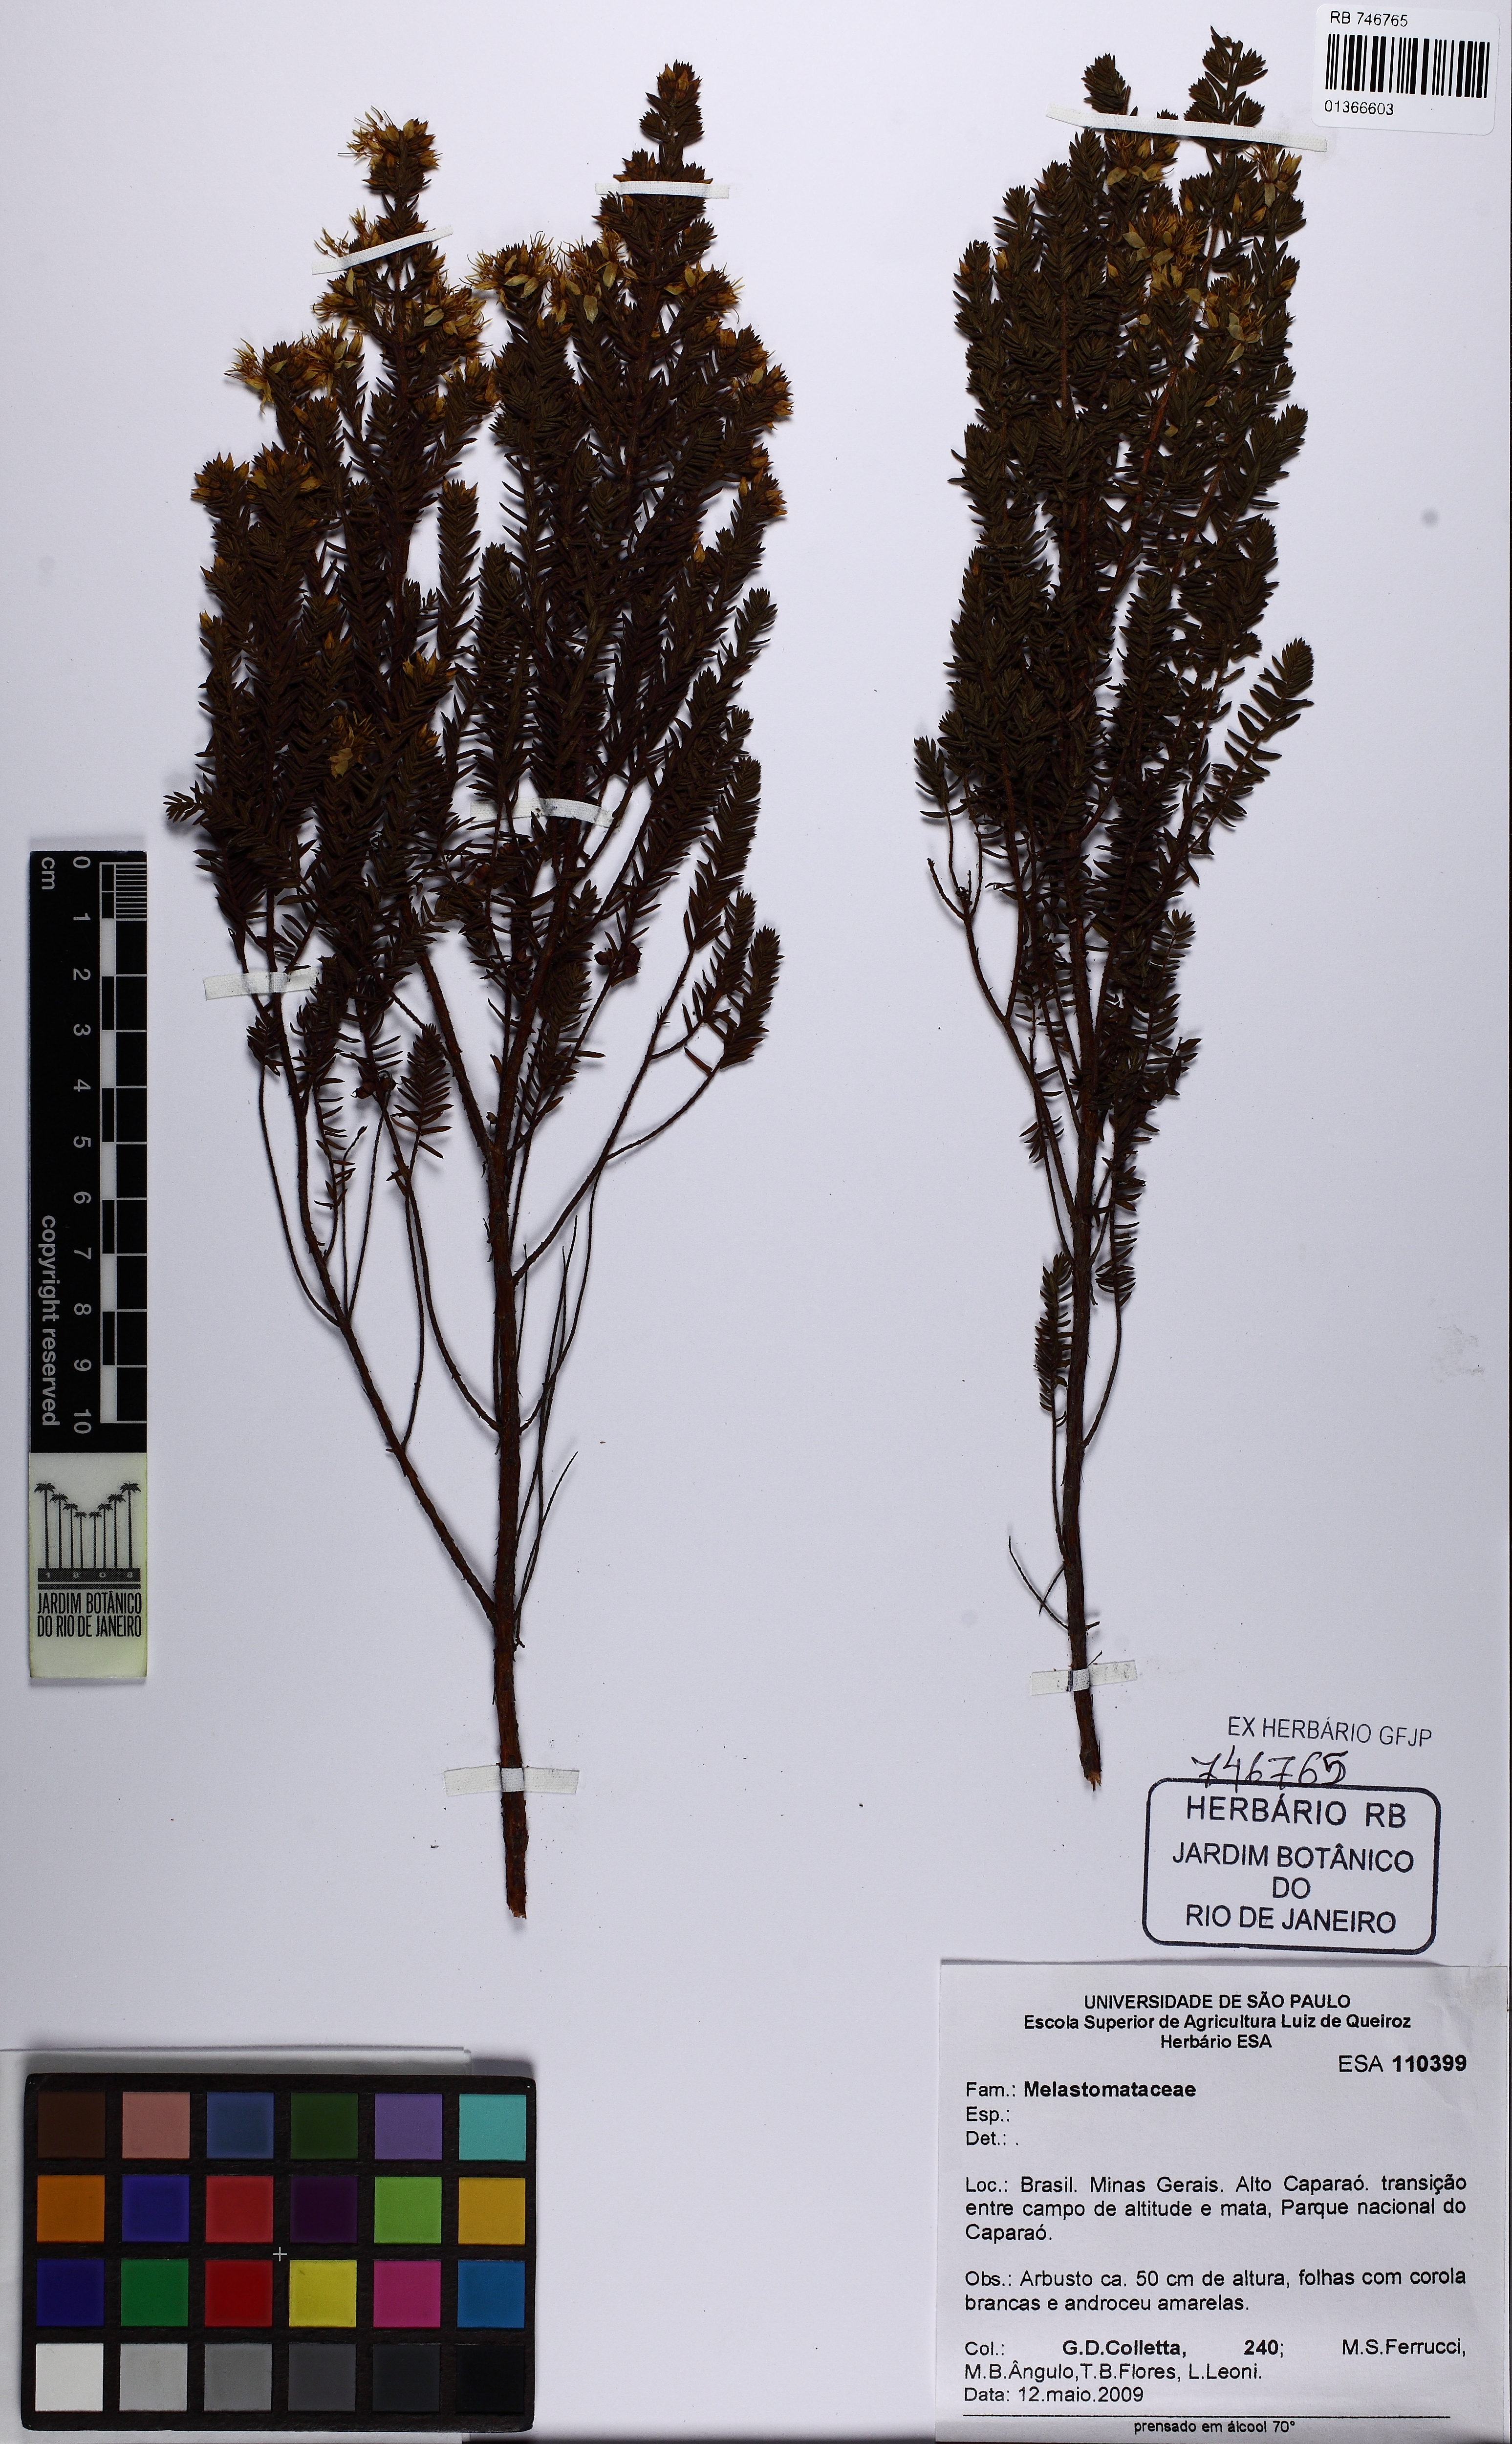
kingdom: Plantae
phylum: Tracheophyta
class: Magnoliopsida
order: Myrtales
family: Melastomataceae
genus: Marcetia
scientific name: Marcetia taxifolia
